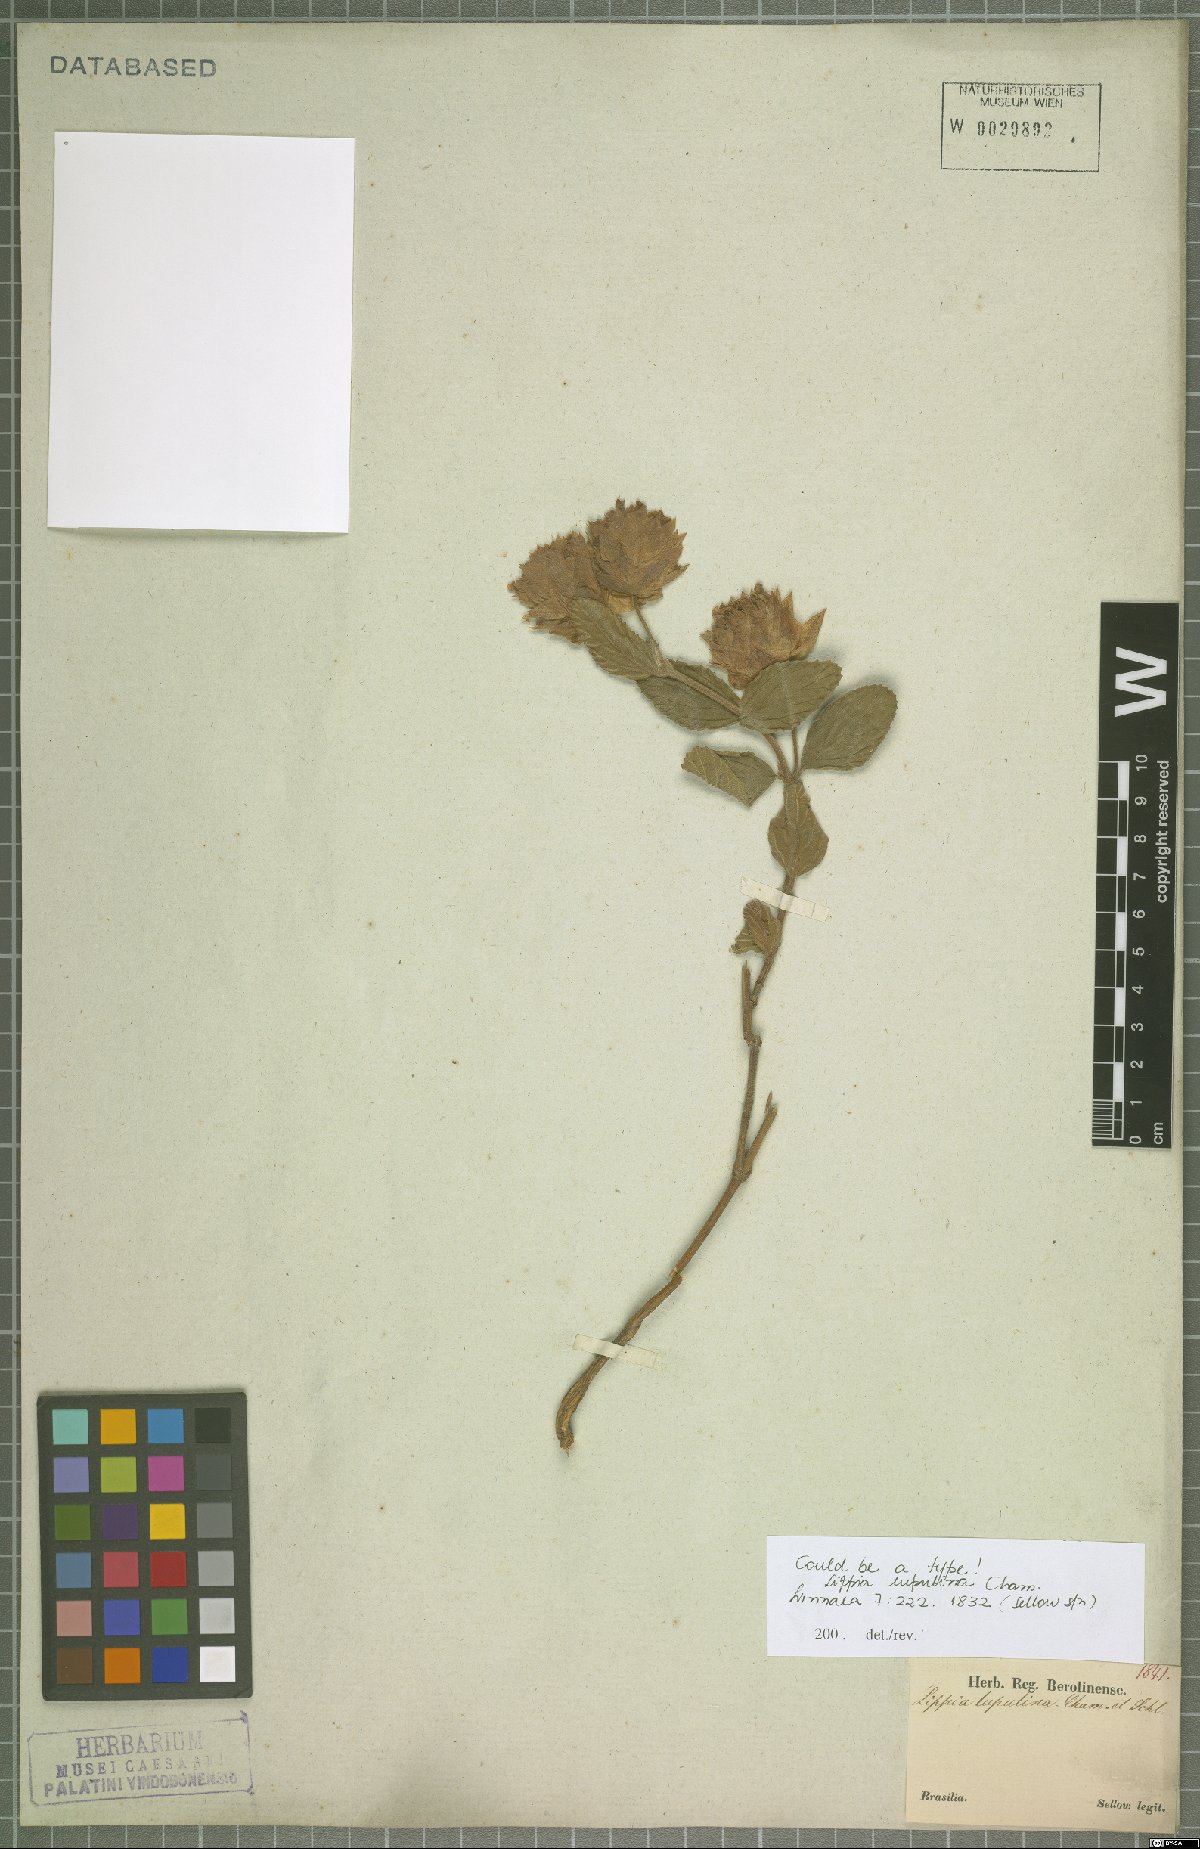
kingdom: Plantae
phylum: Tracheophyta
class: Magnoliopsida
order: Lamiales
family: Verbenaceae
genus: Lippia
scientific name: Lippia lupulina
